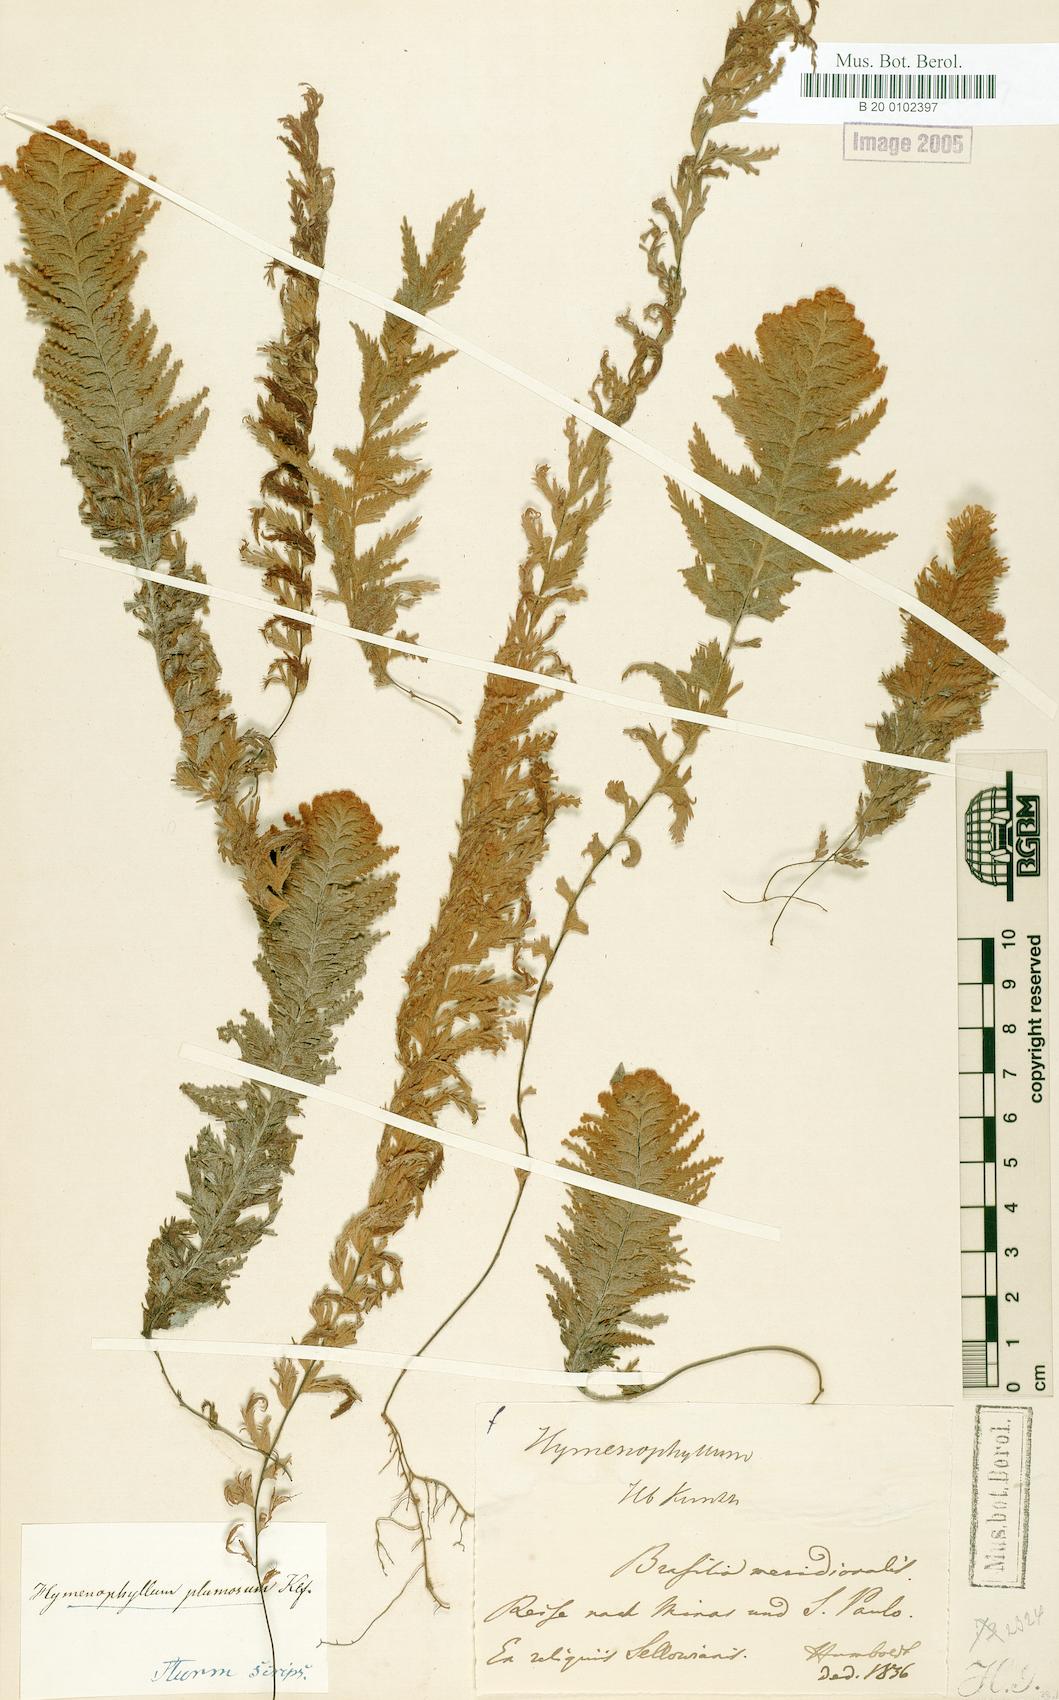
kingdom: Plantae
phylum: Tracheophyta
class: Polypodiopsida
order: Hymenophyllales
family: Hymenophyllaceae
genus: Hymenophyllum
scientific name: Hymenophyllum plumosum
